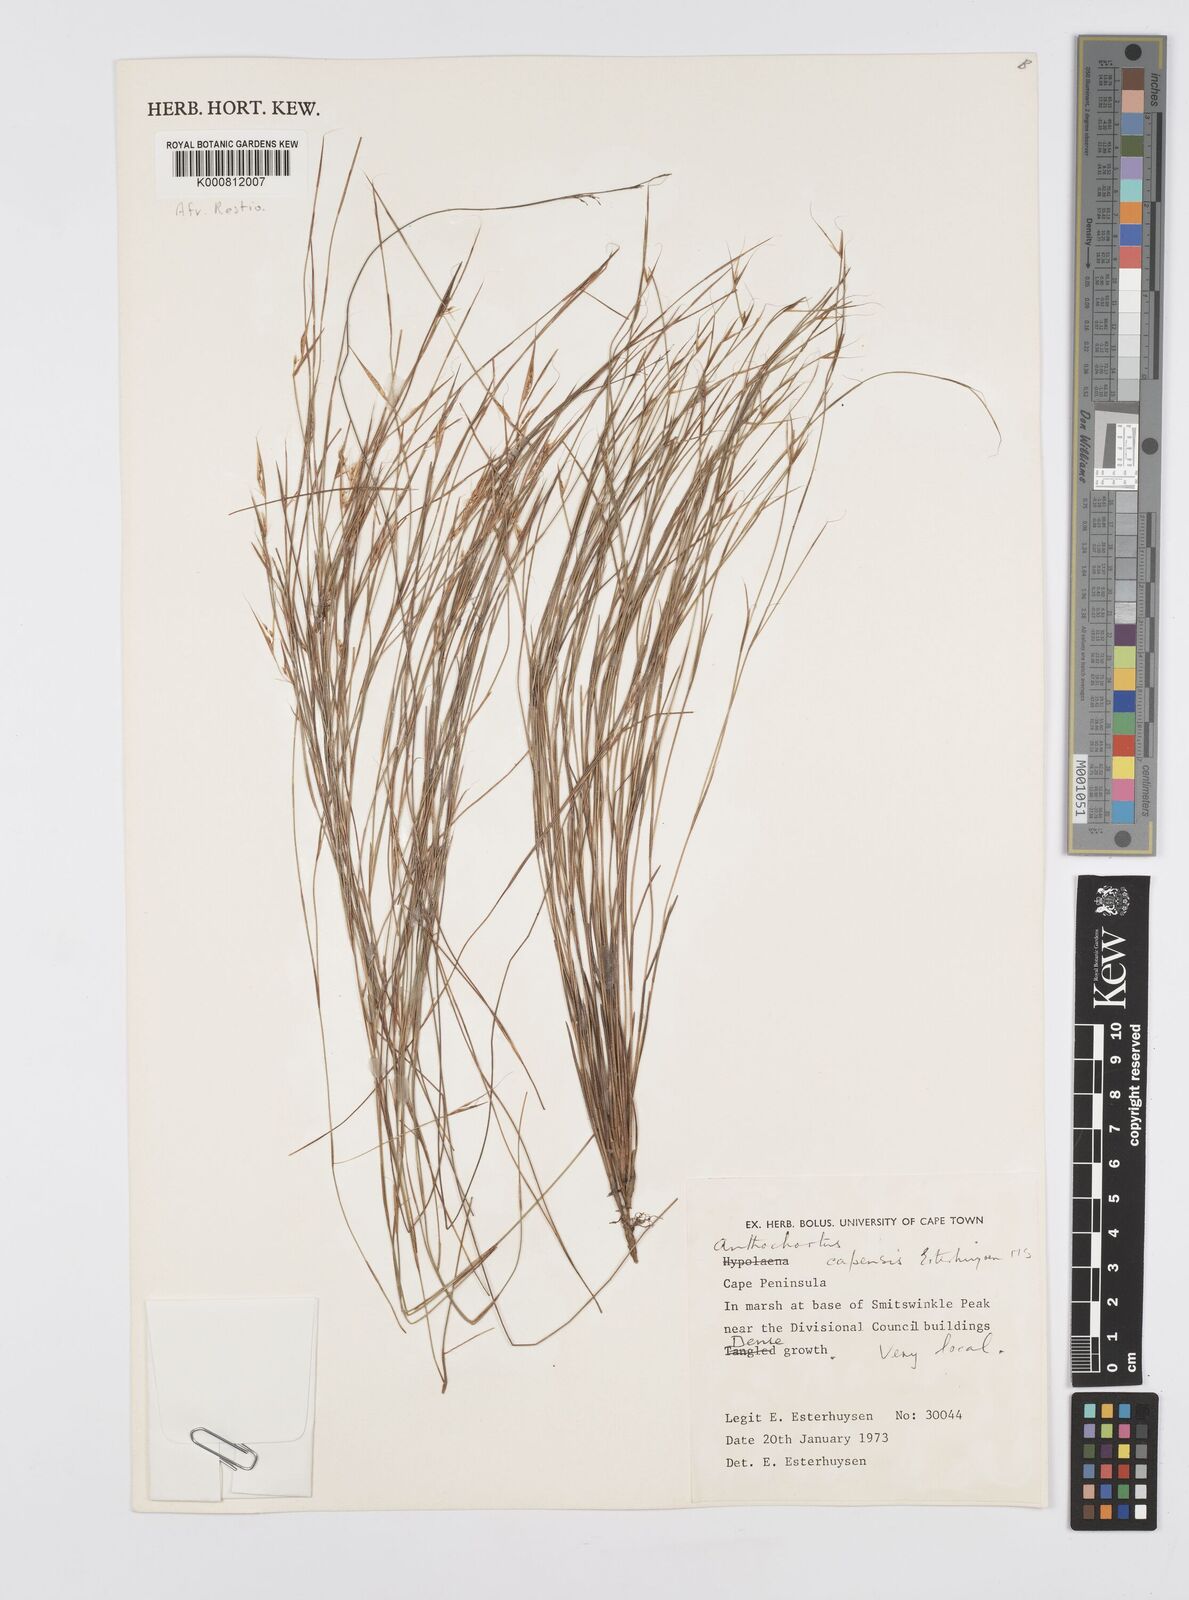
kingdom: Plantae
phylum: Tracheophyta
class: Liliopsida
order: Poales
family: Restionaceae
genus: Anthochortus
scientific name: Anthochortus capensis
